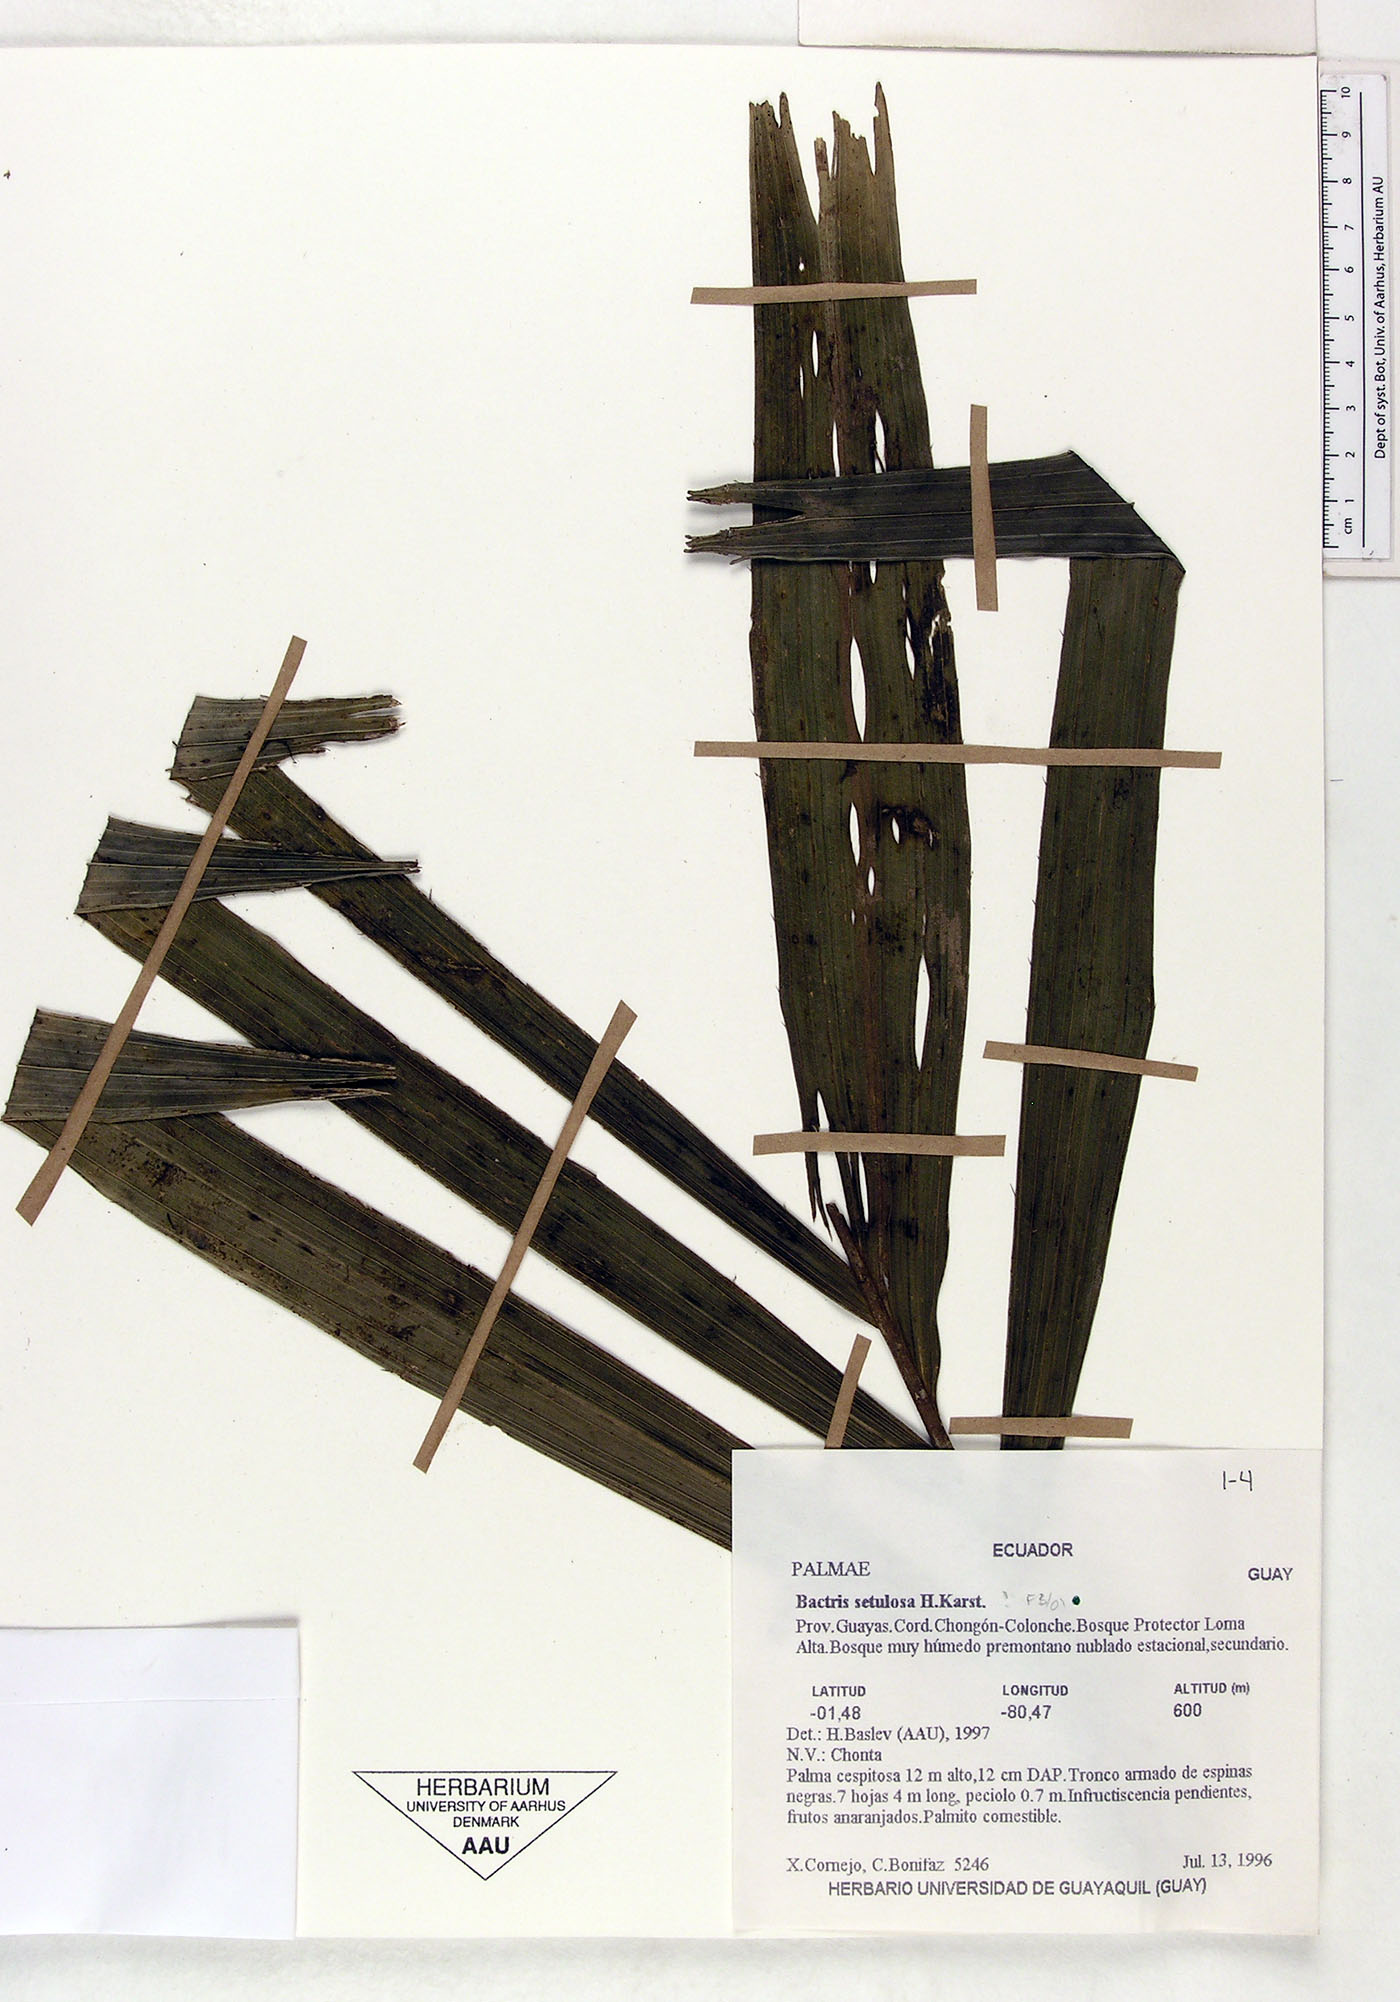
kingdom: Plantae
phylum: Tracheophyta
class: Liliopsida
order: Arecales
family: Arecaceae
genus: Bactris
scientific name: Bactris setulosa
